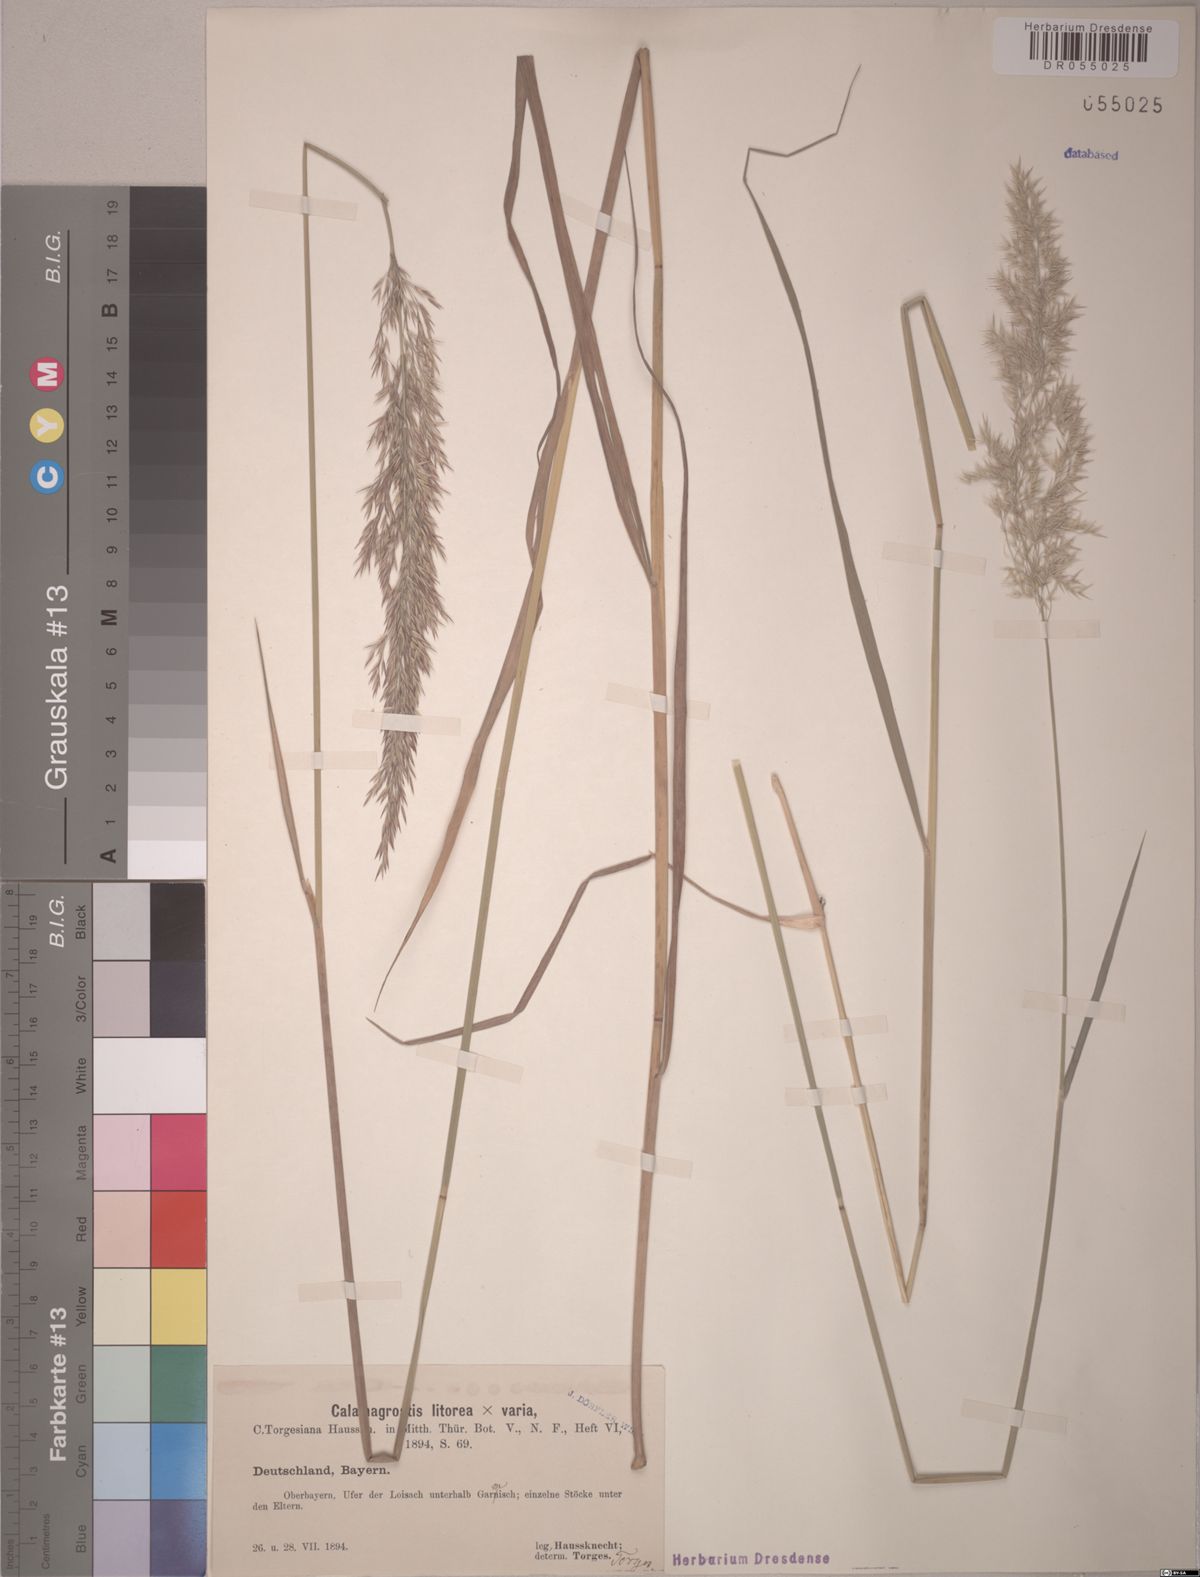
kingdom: Plantae
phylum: Tracheophyta
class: Liliopsida
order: Poales
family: Poaceae
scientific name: Poaceae
